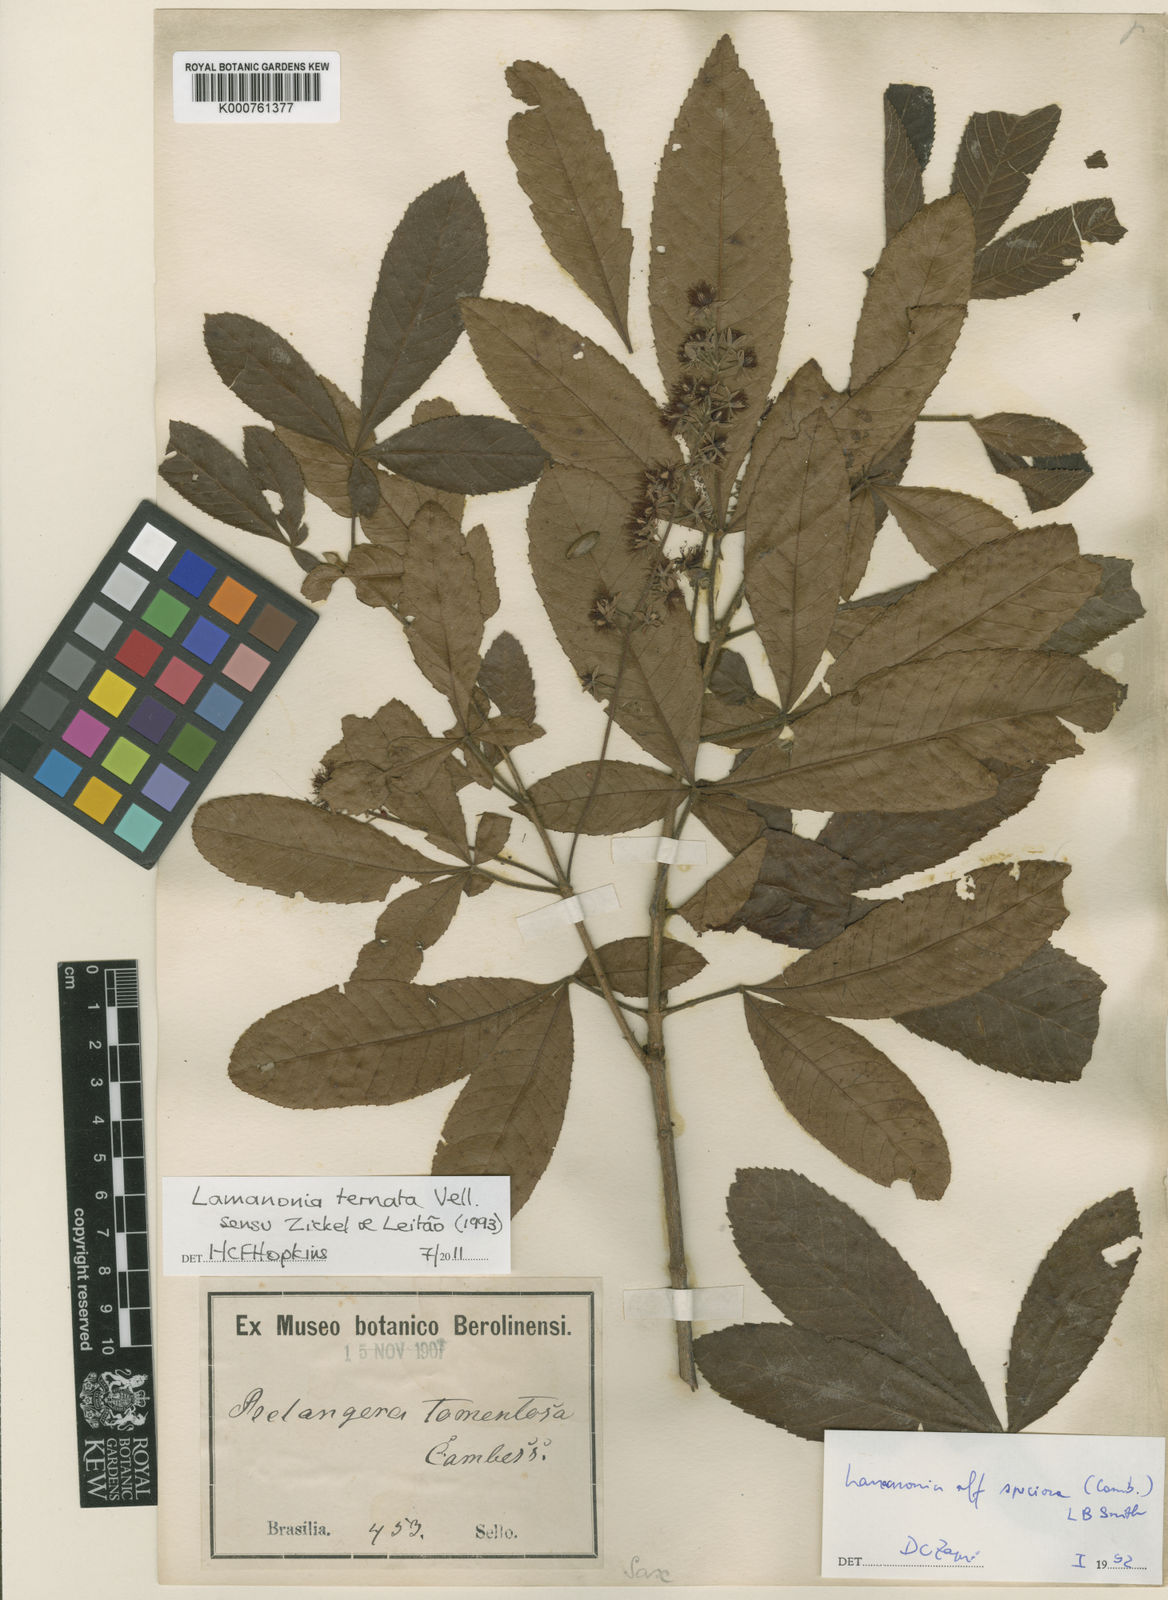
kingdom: Plantae
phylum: Tracheophyta
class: Magnoliopsida
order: Oxalidales
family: Cunoniaceae
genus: Lamanonia
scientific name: Lamanonia ternata
